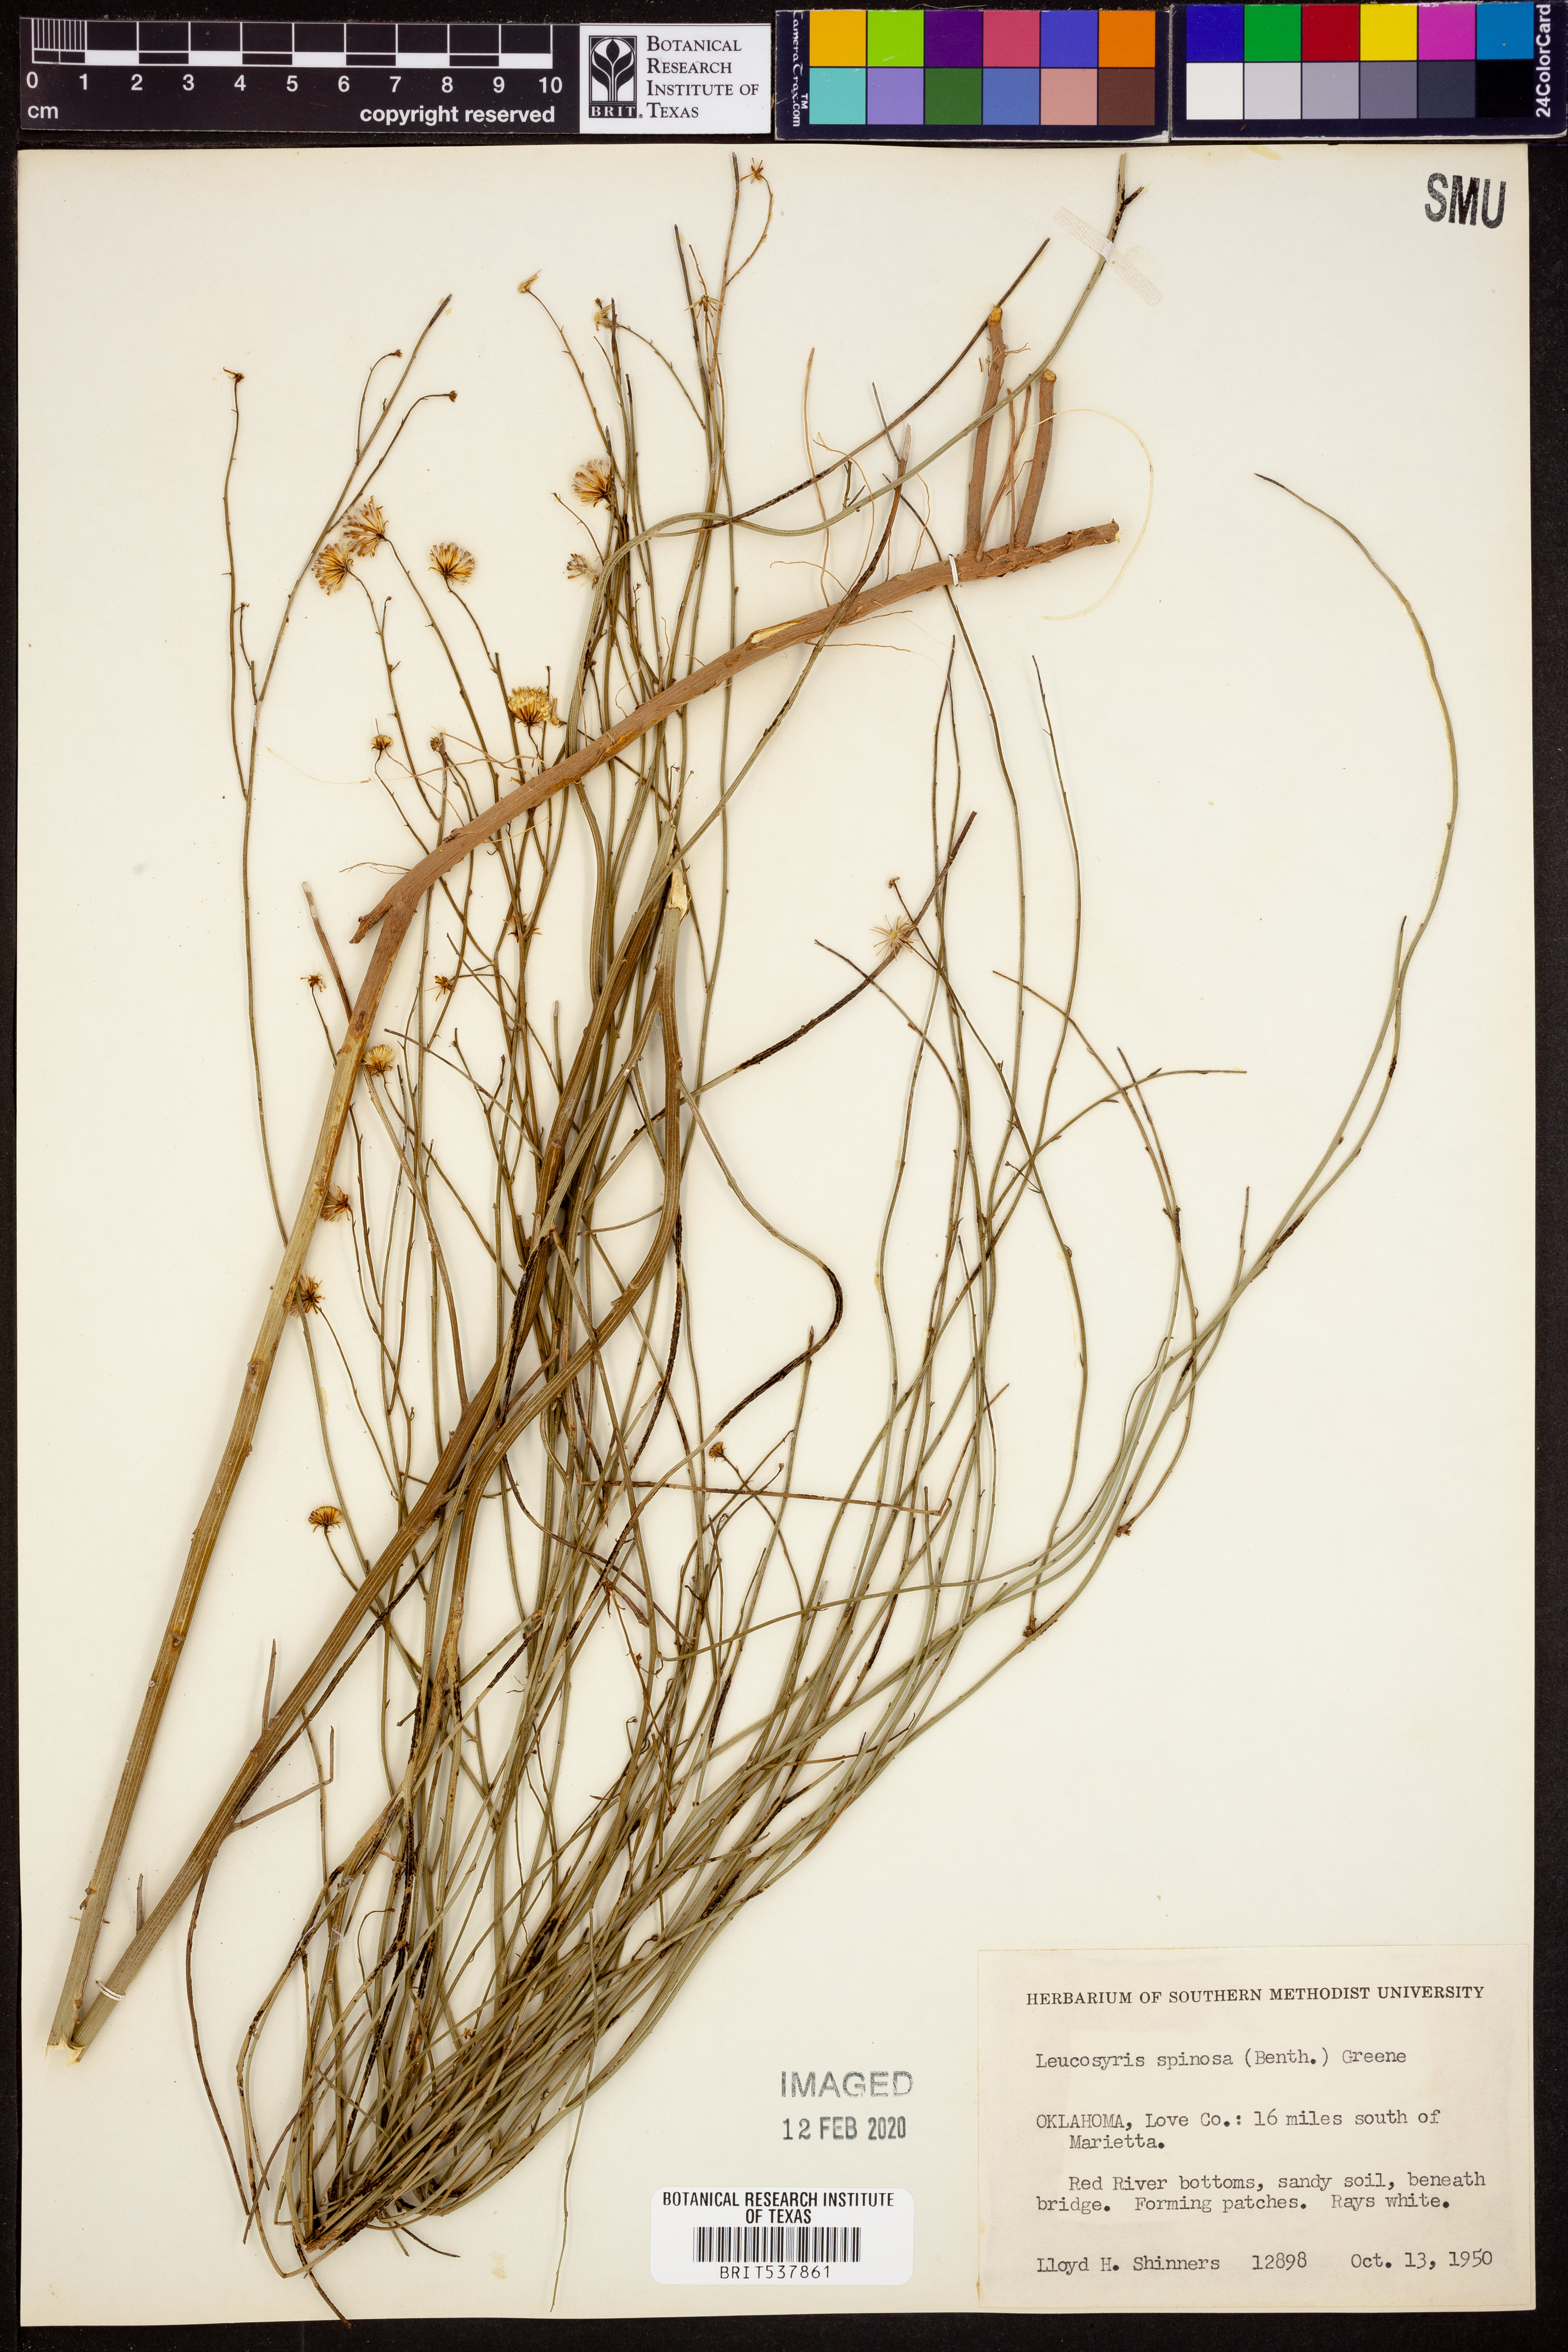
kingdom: Plantae
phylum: Tracheophyta
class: Magnoliopsida
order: Asterales
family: Asteraceae
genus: Chloracantha
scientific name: Chloracantha spinosa
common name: Mexican devilweed
